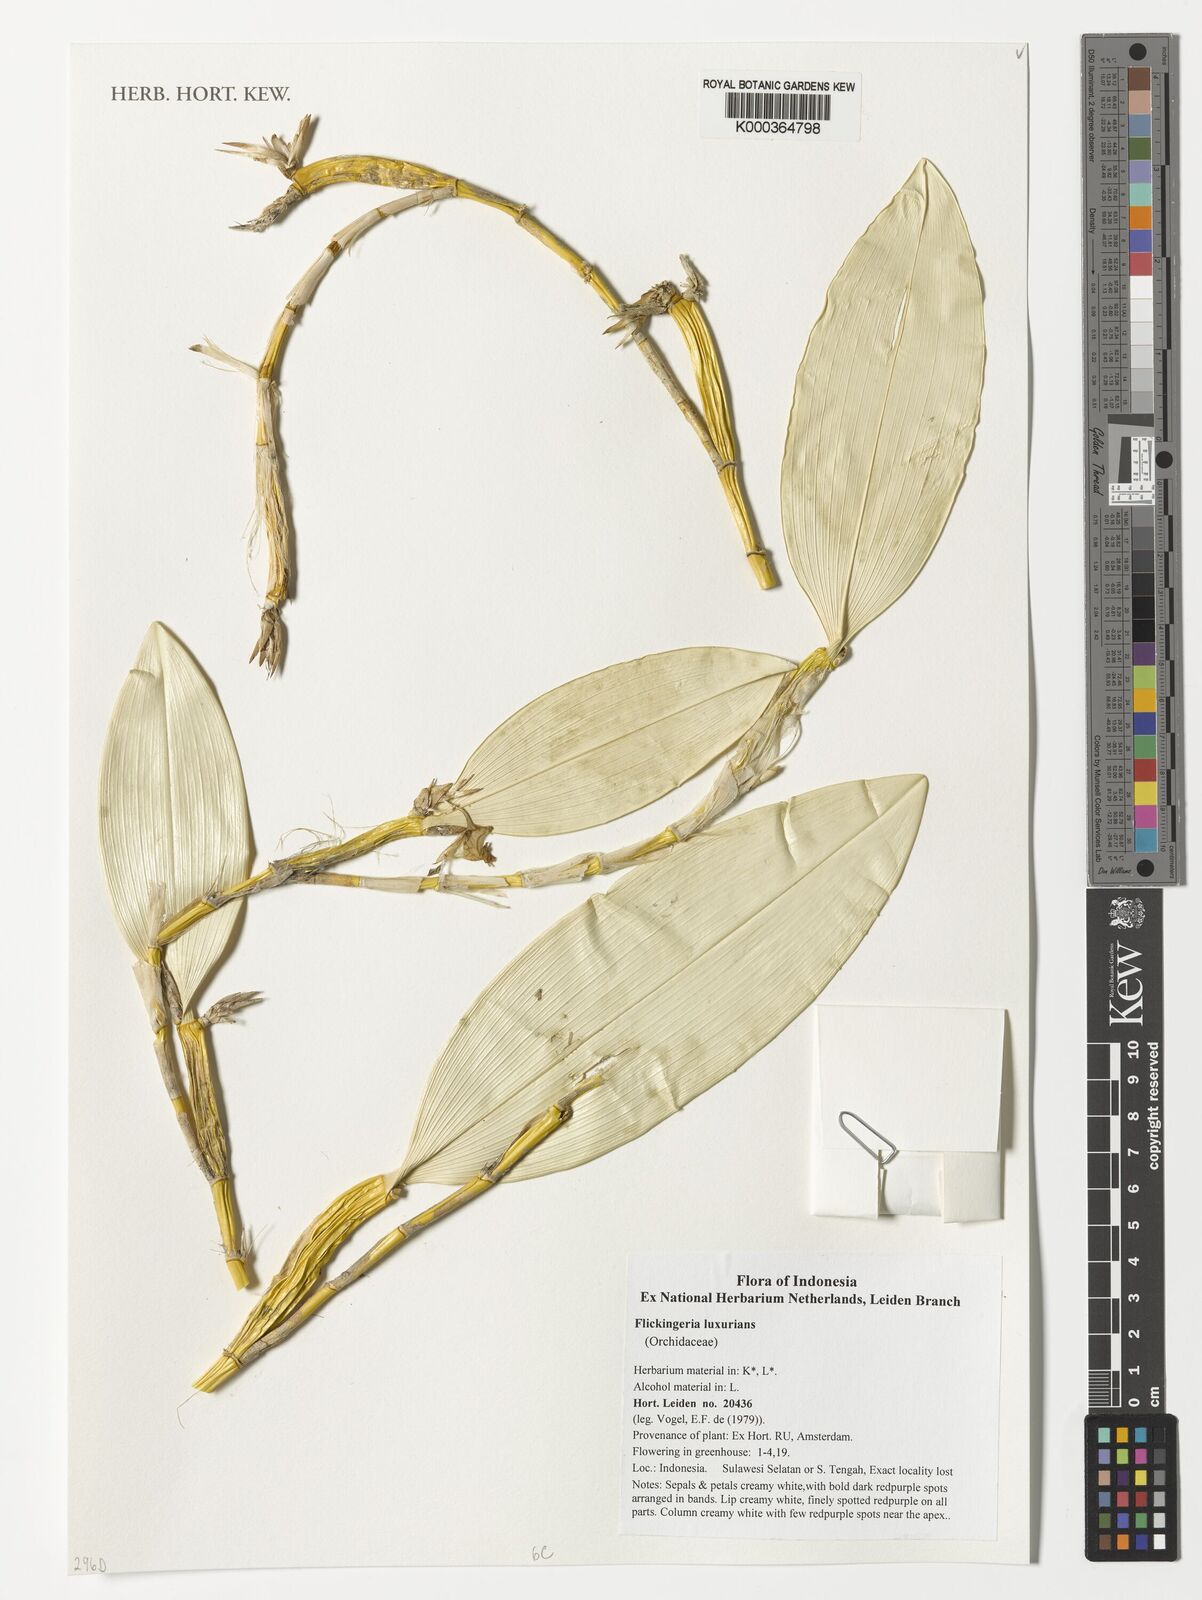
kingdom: Plantae
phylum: Tracheophyta
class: Liliopsida
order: Asparagales
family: Orchidaceae
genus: Dendrobium
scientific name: Dendrobium luxurians
